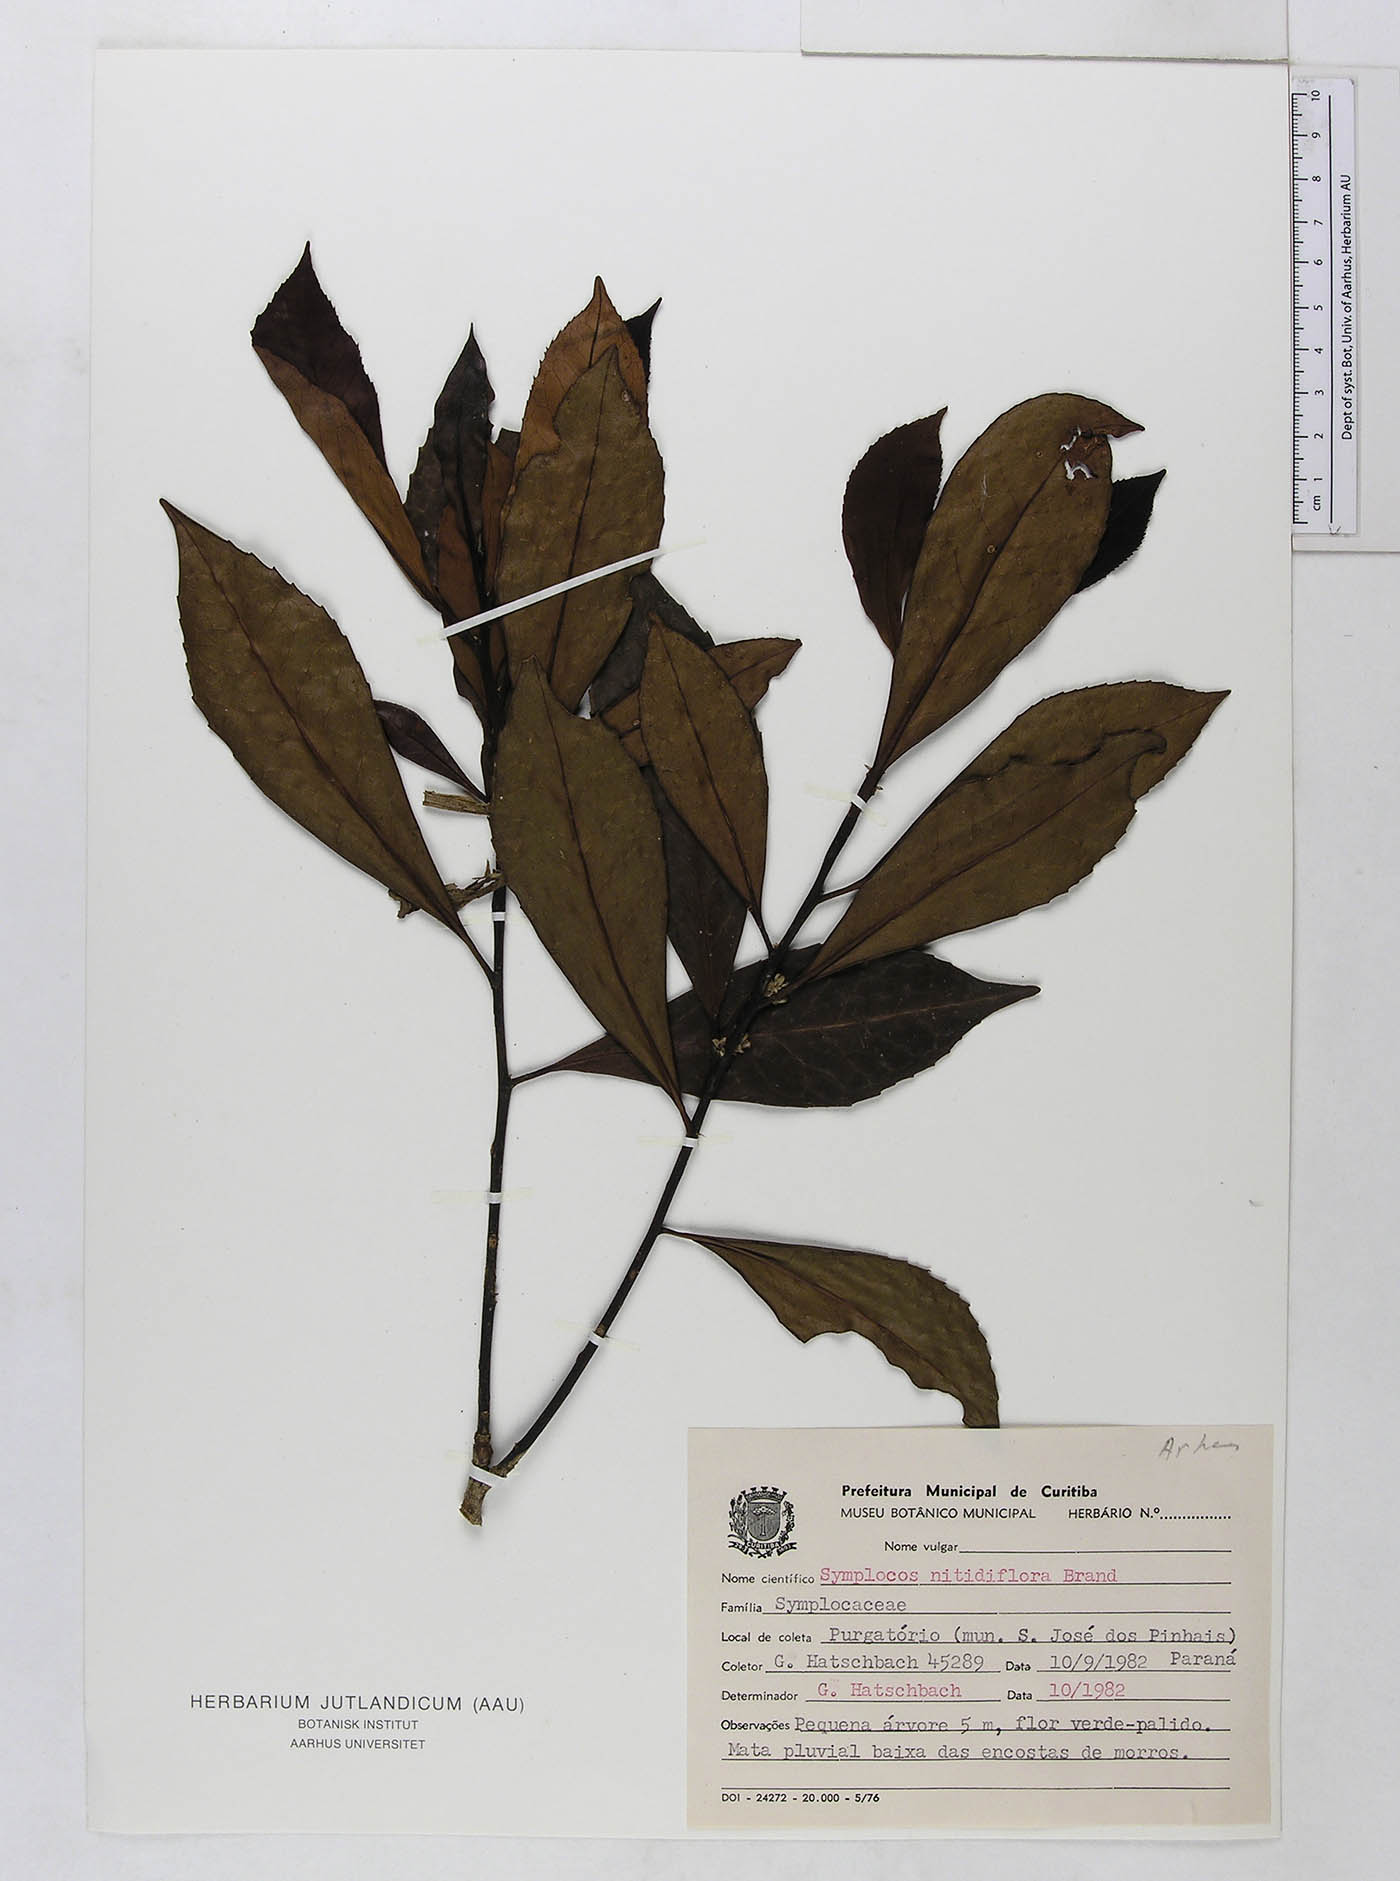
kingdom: Plantae
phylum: Tracheophyta
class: Magnoliopsida
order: Ericales
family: Symplocaceae
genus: Symplocos
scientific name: Symplocos nitidiflora
